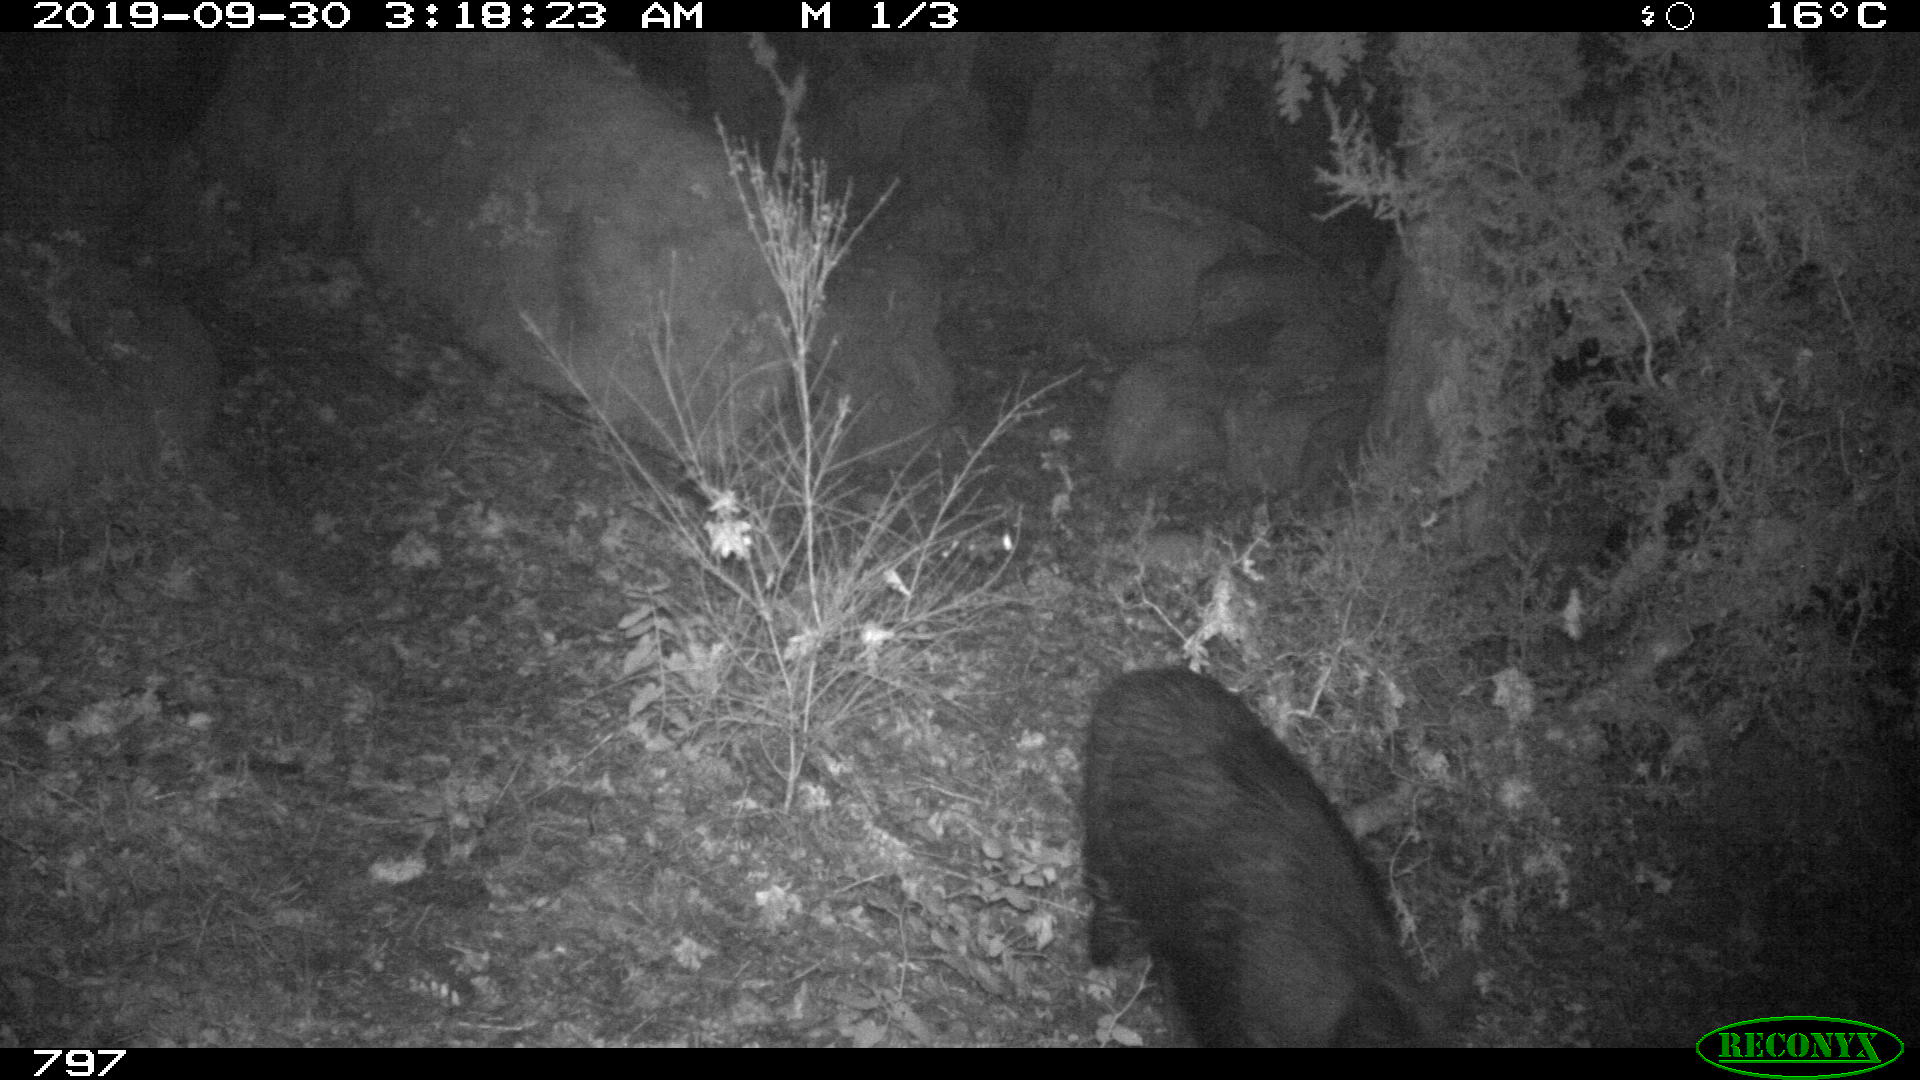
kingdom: Animalia
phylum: Chordata
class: Mammalia
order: Artiodactyla
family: Suidae
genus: Sus
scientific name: Sus scrofa
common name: Wild boar
